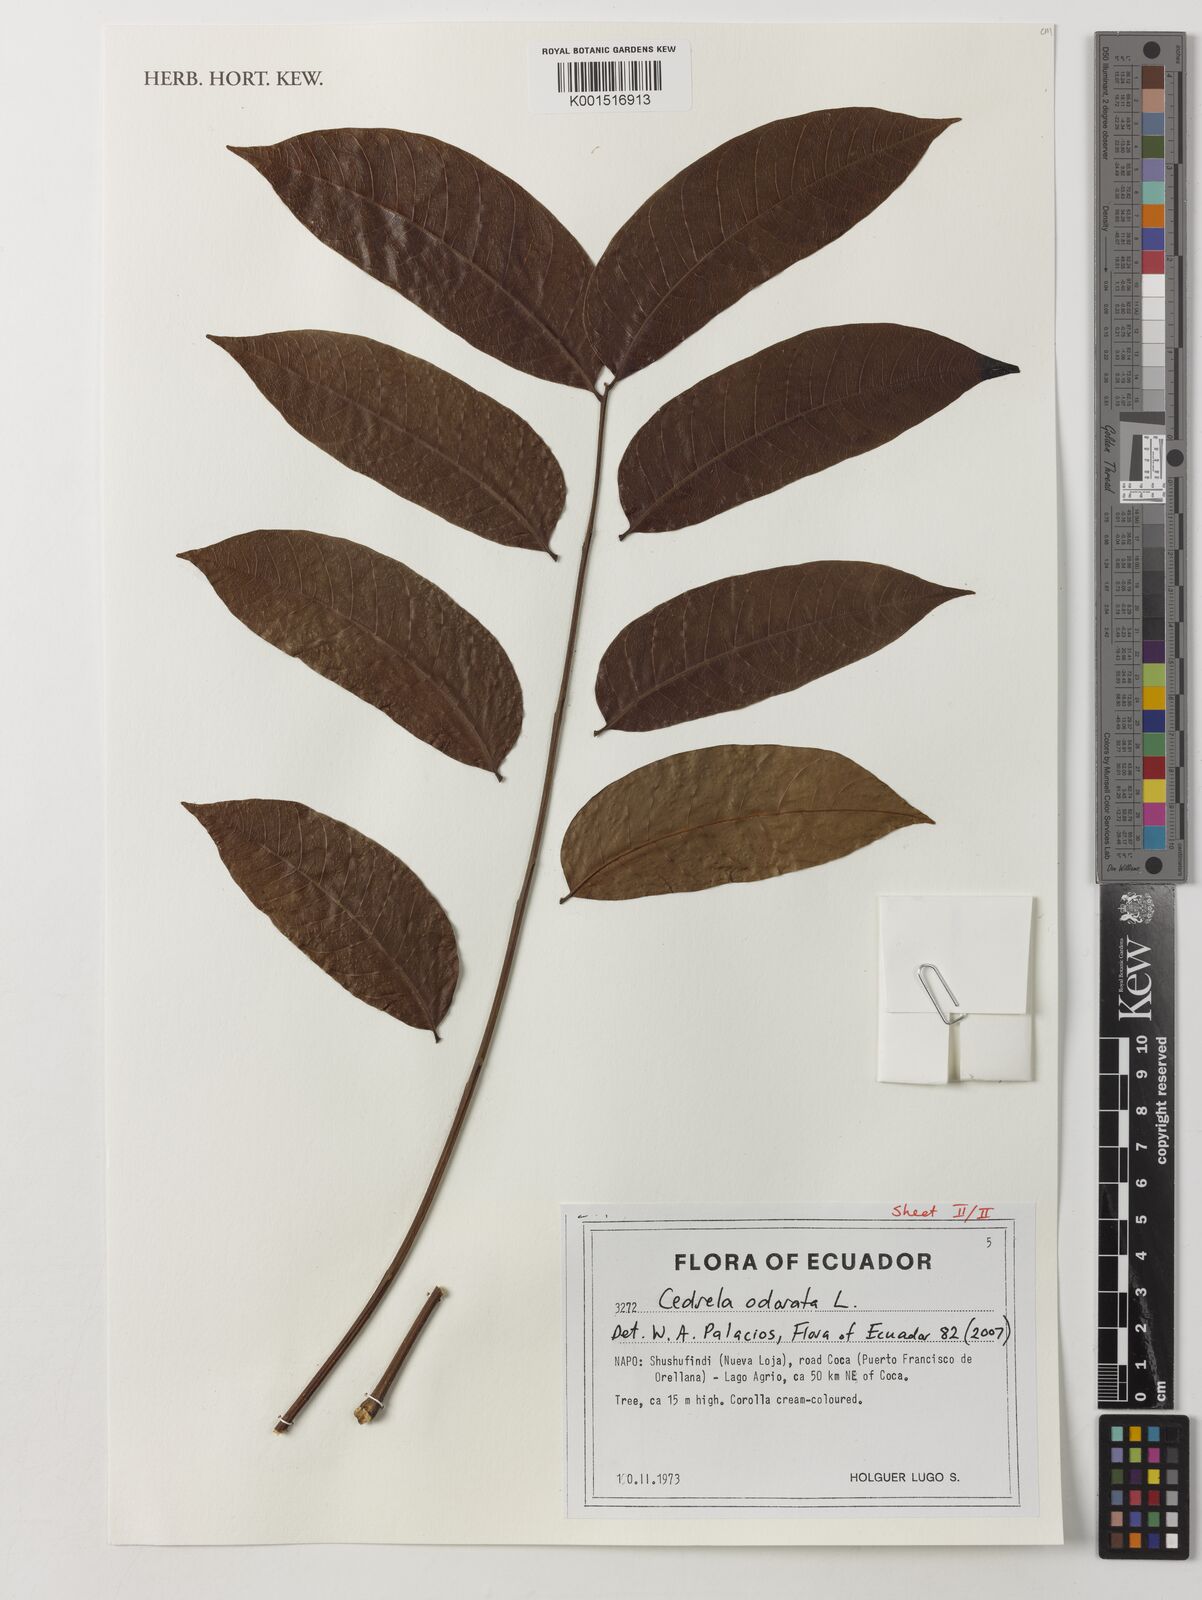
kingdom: Plantae
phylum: Tracheophyta
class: Magnoliopsida
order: Sapindales
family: Meliaceae
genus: Cedrela
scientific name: Cedrela odorata
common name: Red cedar
